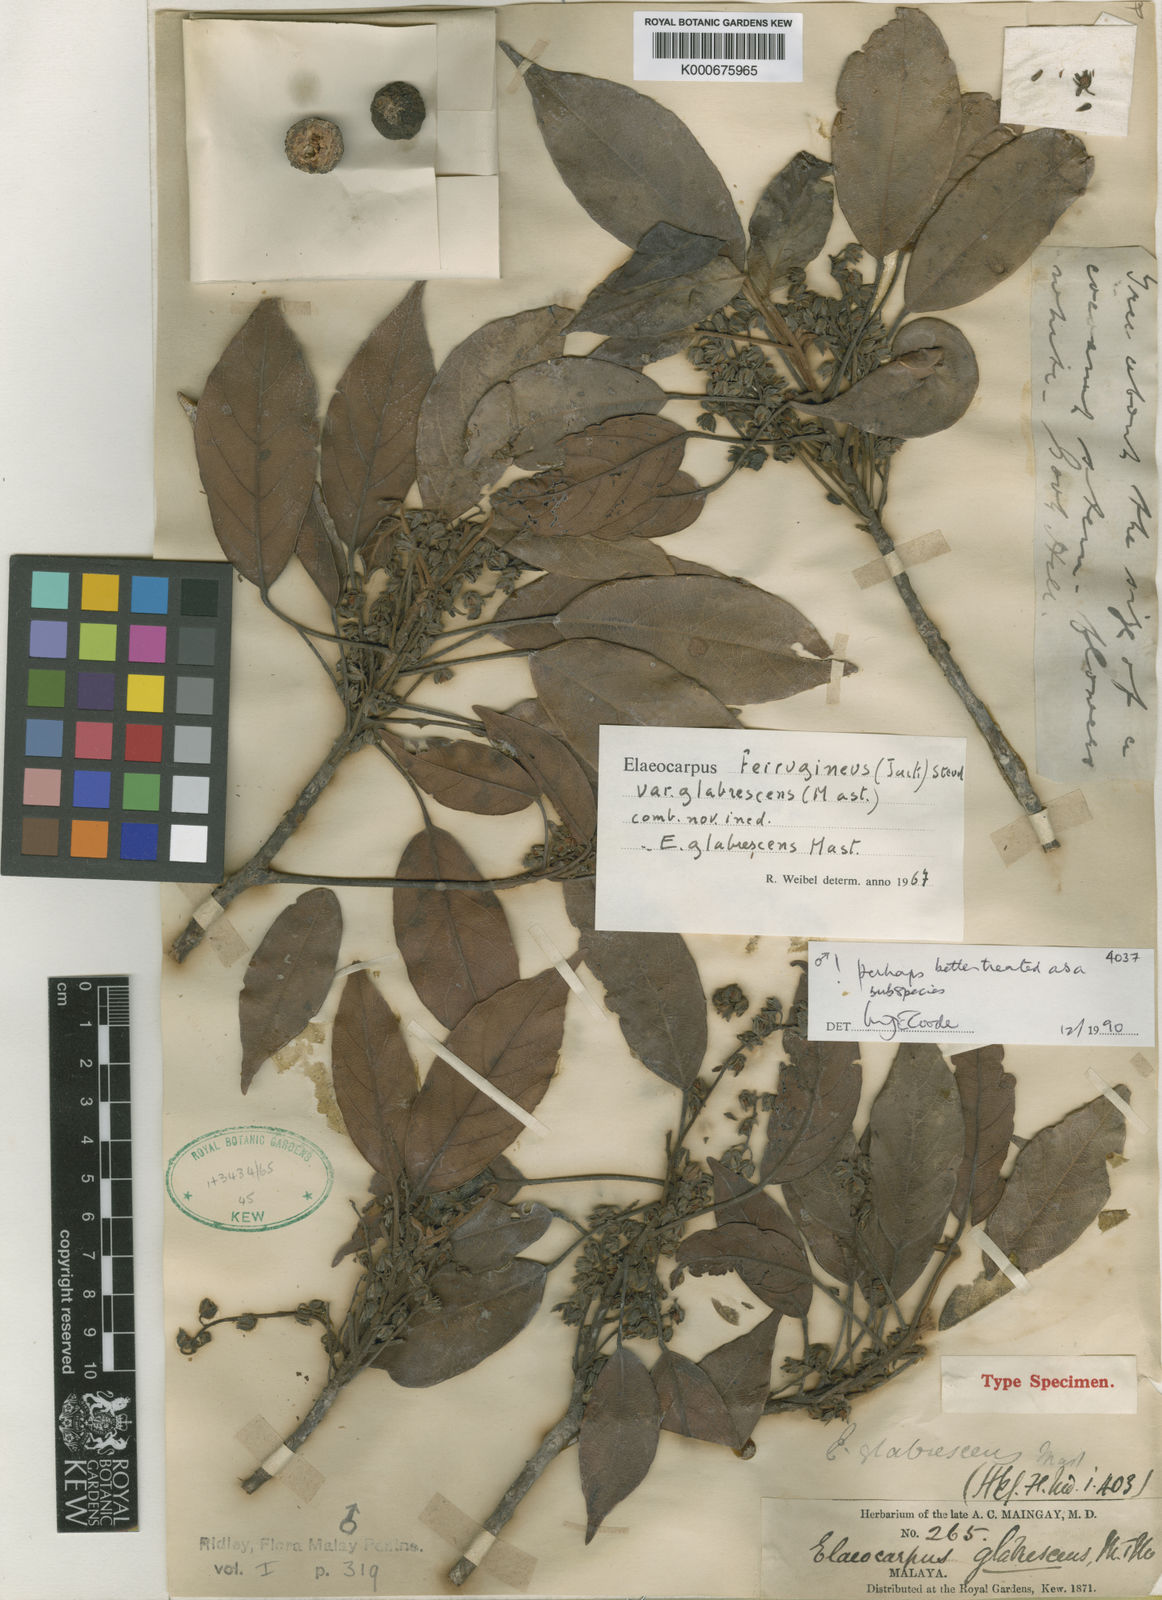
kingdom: Plantae
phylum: Tracheophyta
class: Magnoliopsida
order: Oxalidales
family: Elaeocarpaceae
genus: Elaeocarpus
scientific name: Elaeocarpus ferrugineus
